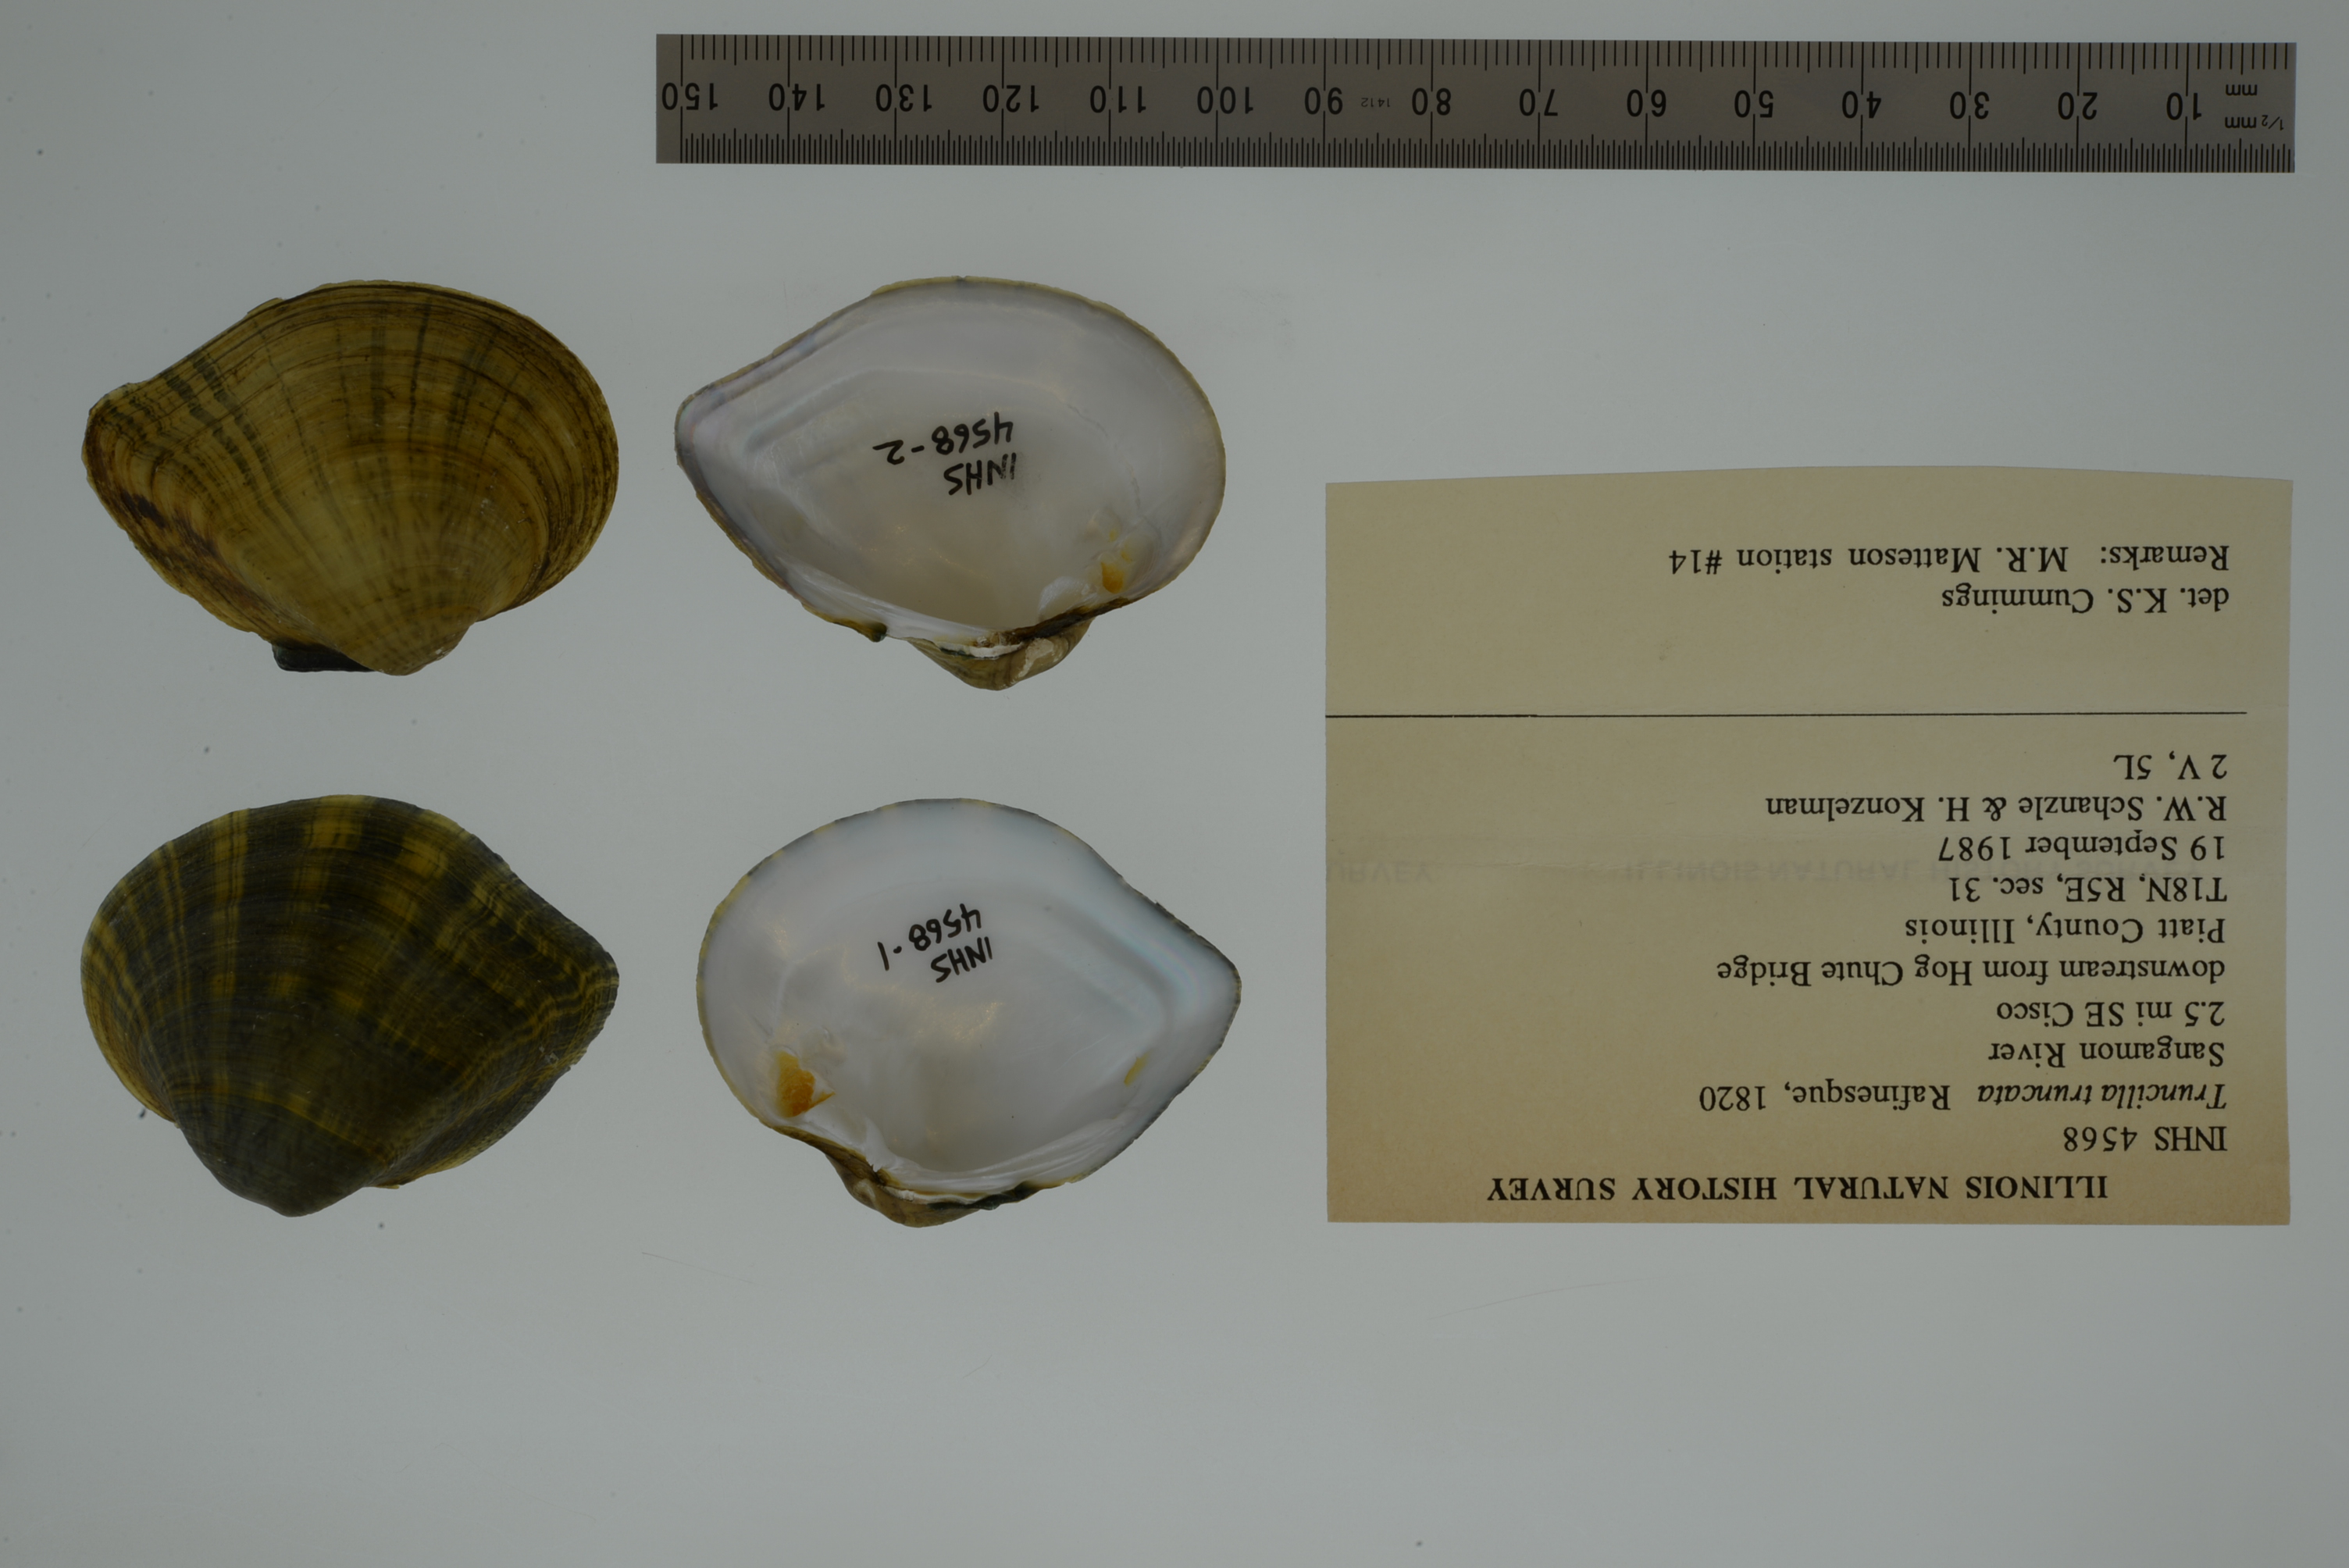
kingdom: Animalia
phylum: Mollusca
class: Bivalvia
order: Unionida
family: Unionidae
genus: Truncilla
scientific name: Truncilla truncata
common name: Deertoe
